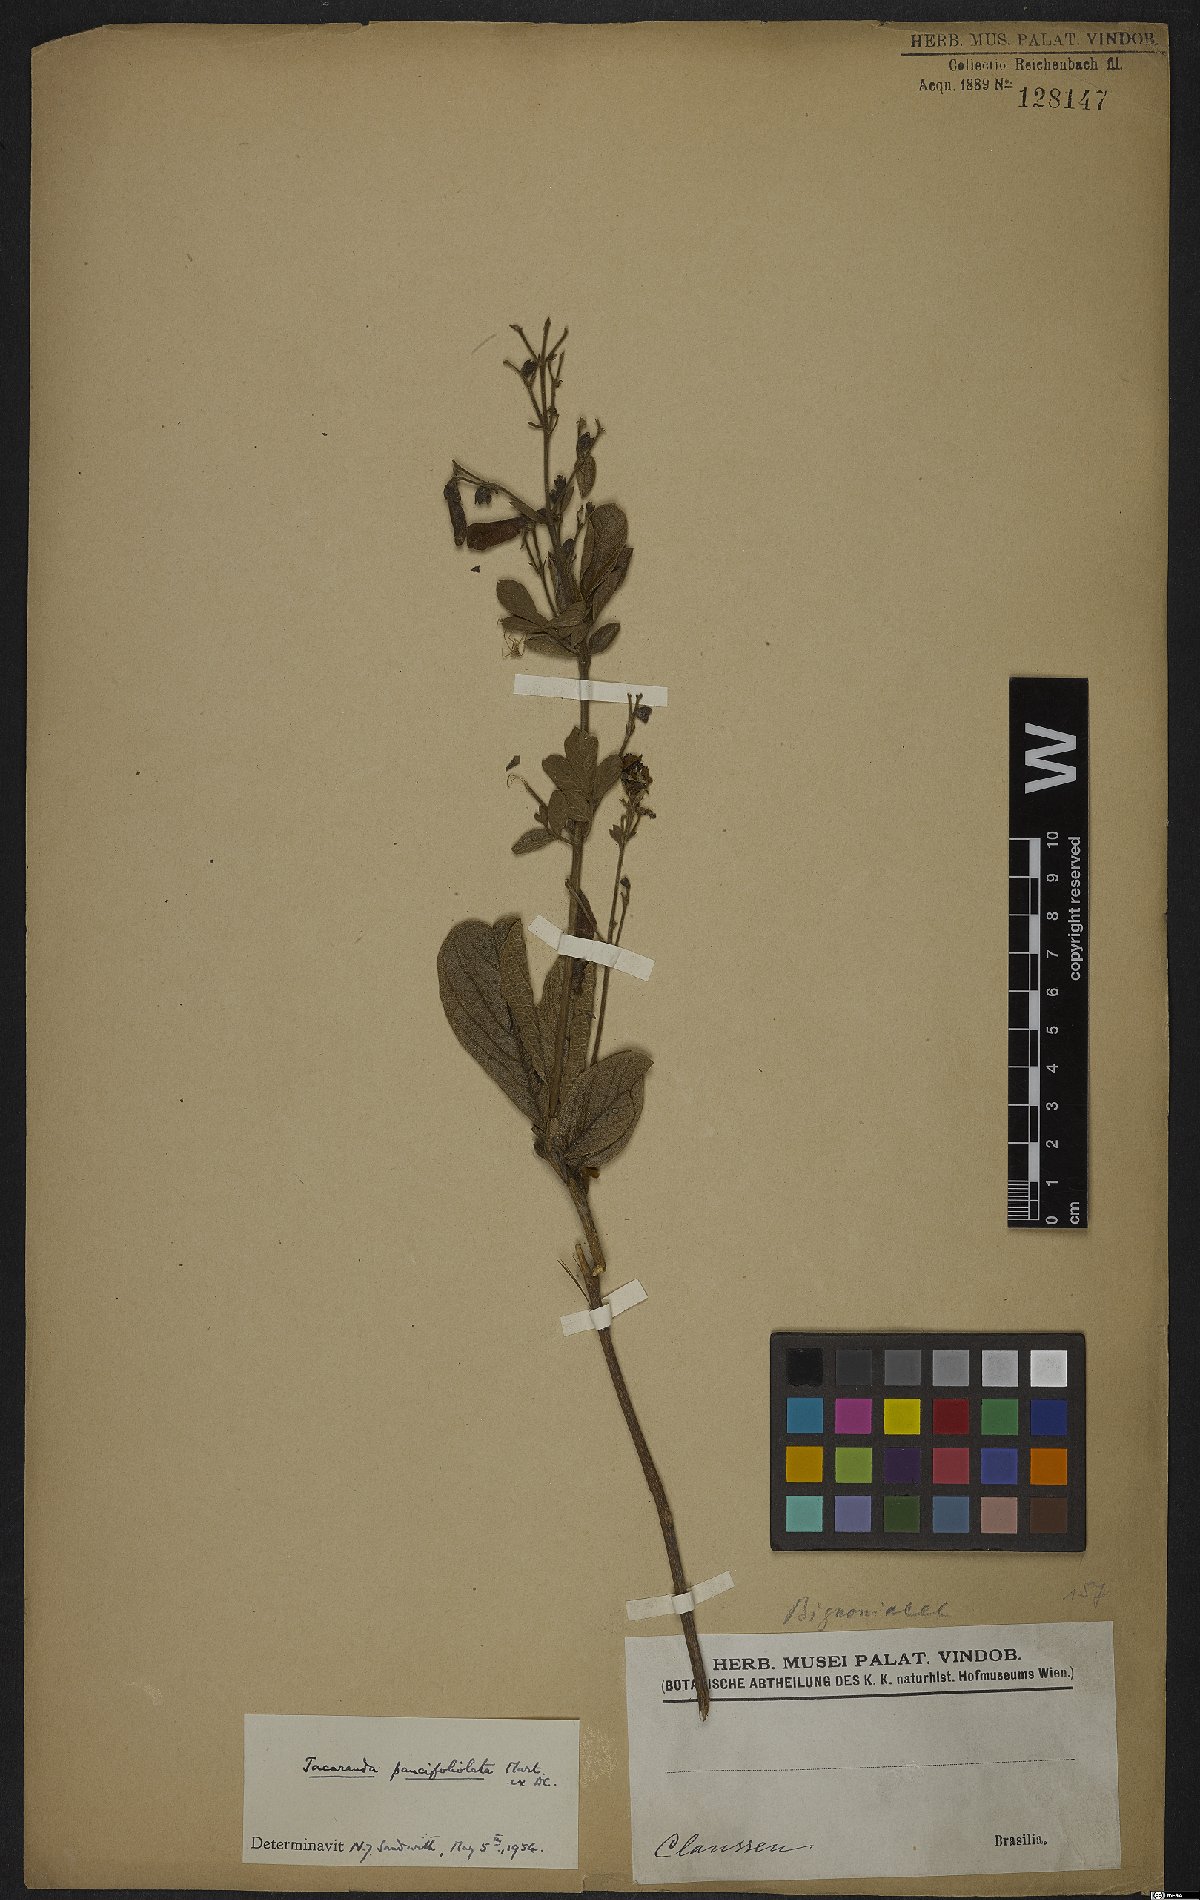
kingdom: Plantae
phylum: Tracheophyta
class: Magnoliopsida
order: Lamiales
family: Bignoniaceae
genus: Jacaranda
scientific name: Jacaranda paucifoliolata
